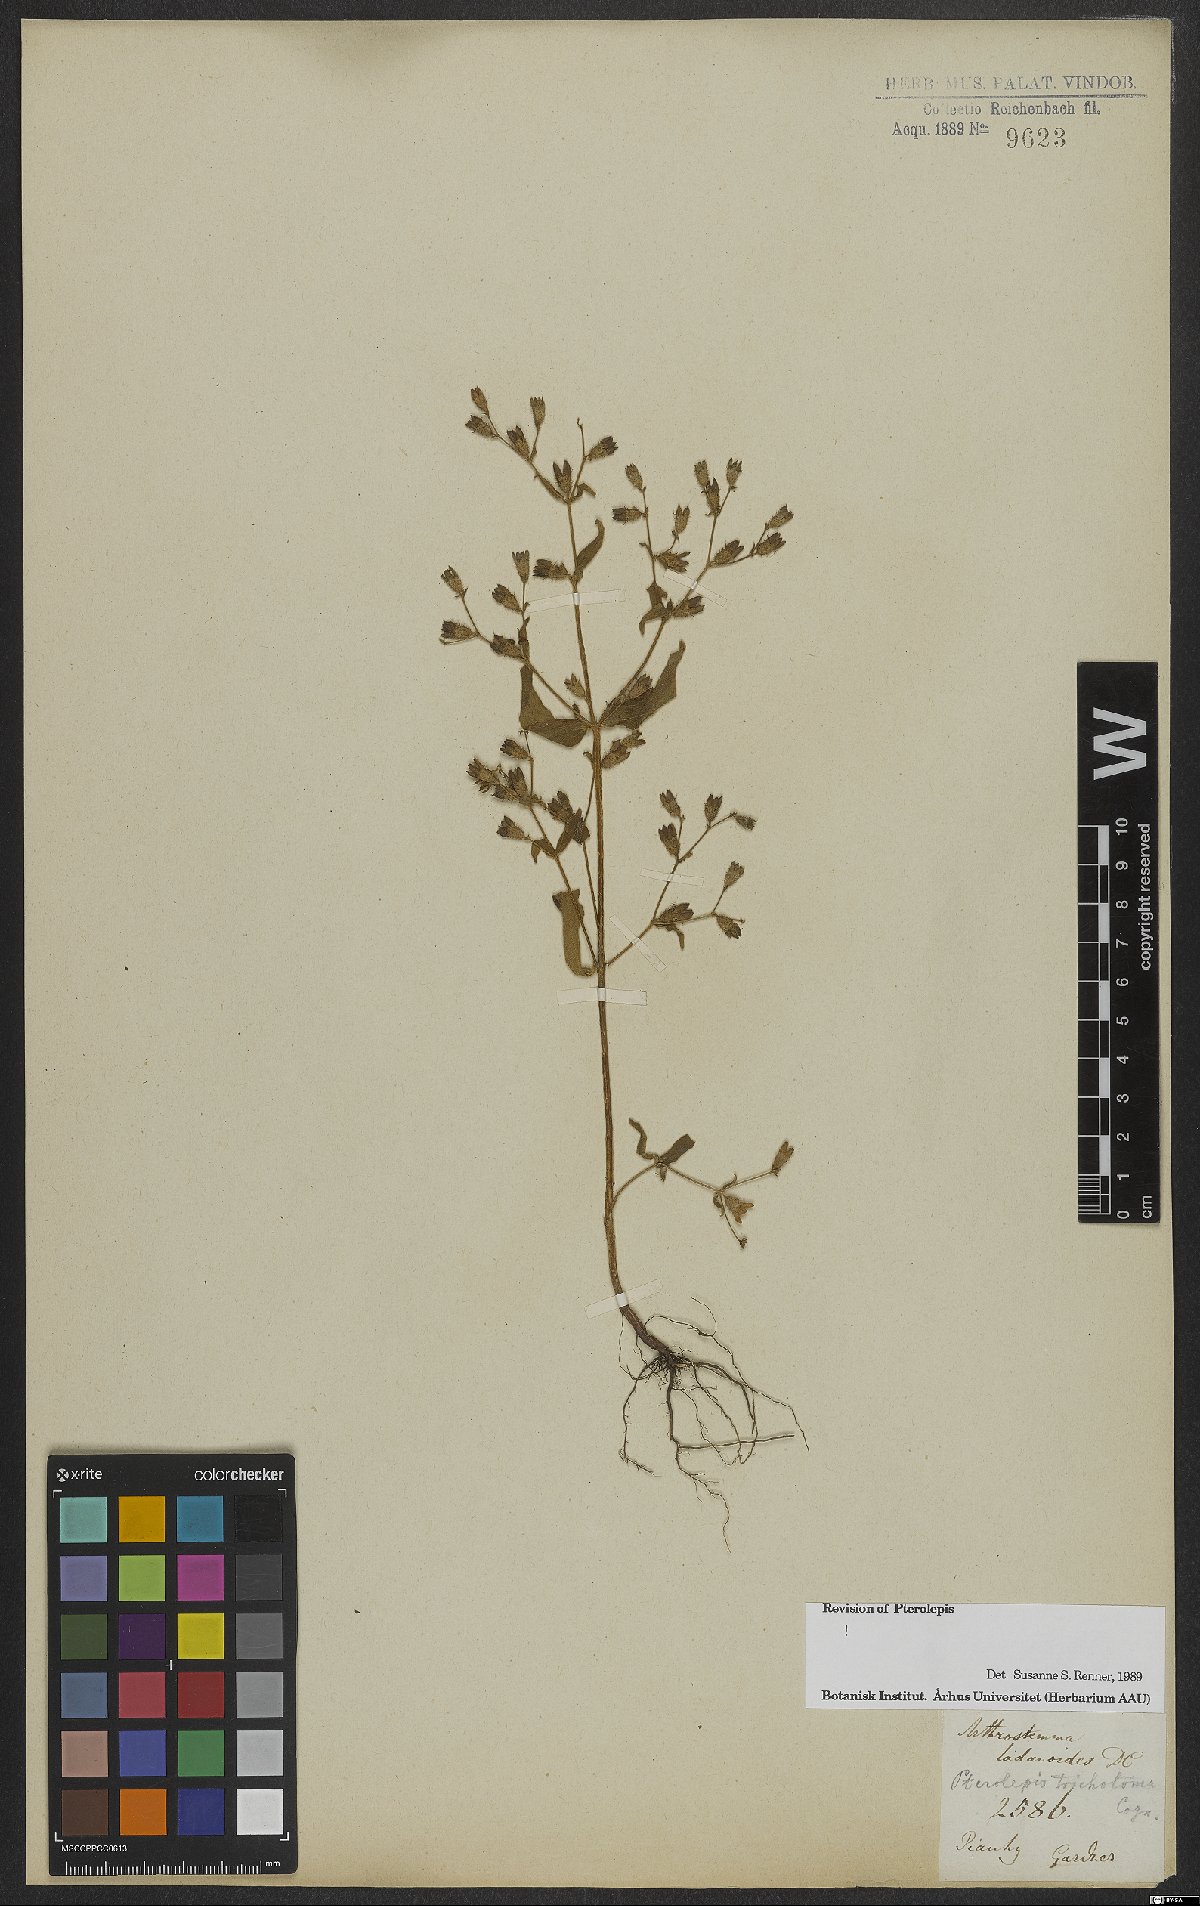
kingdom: Plantae
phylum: Tracheophyta
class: Magnoliopsida
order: Myrtales
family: Melastomataceae
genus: Pterolepis
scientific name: Pterolepis trichotoma
